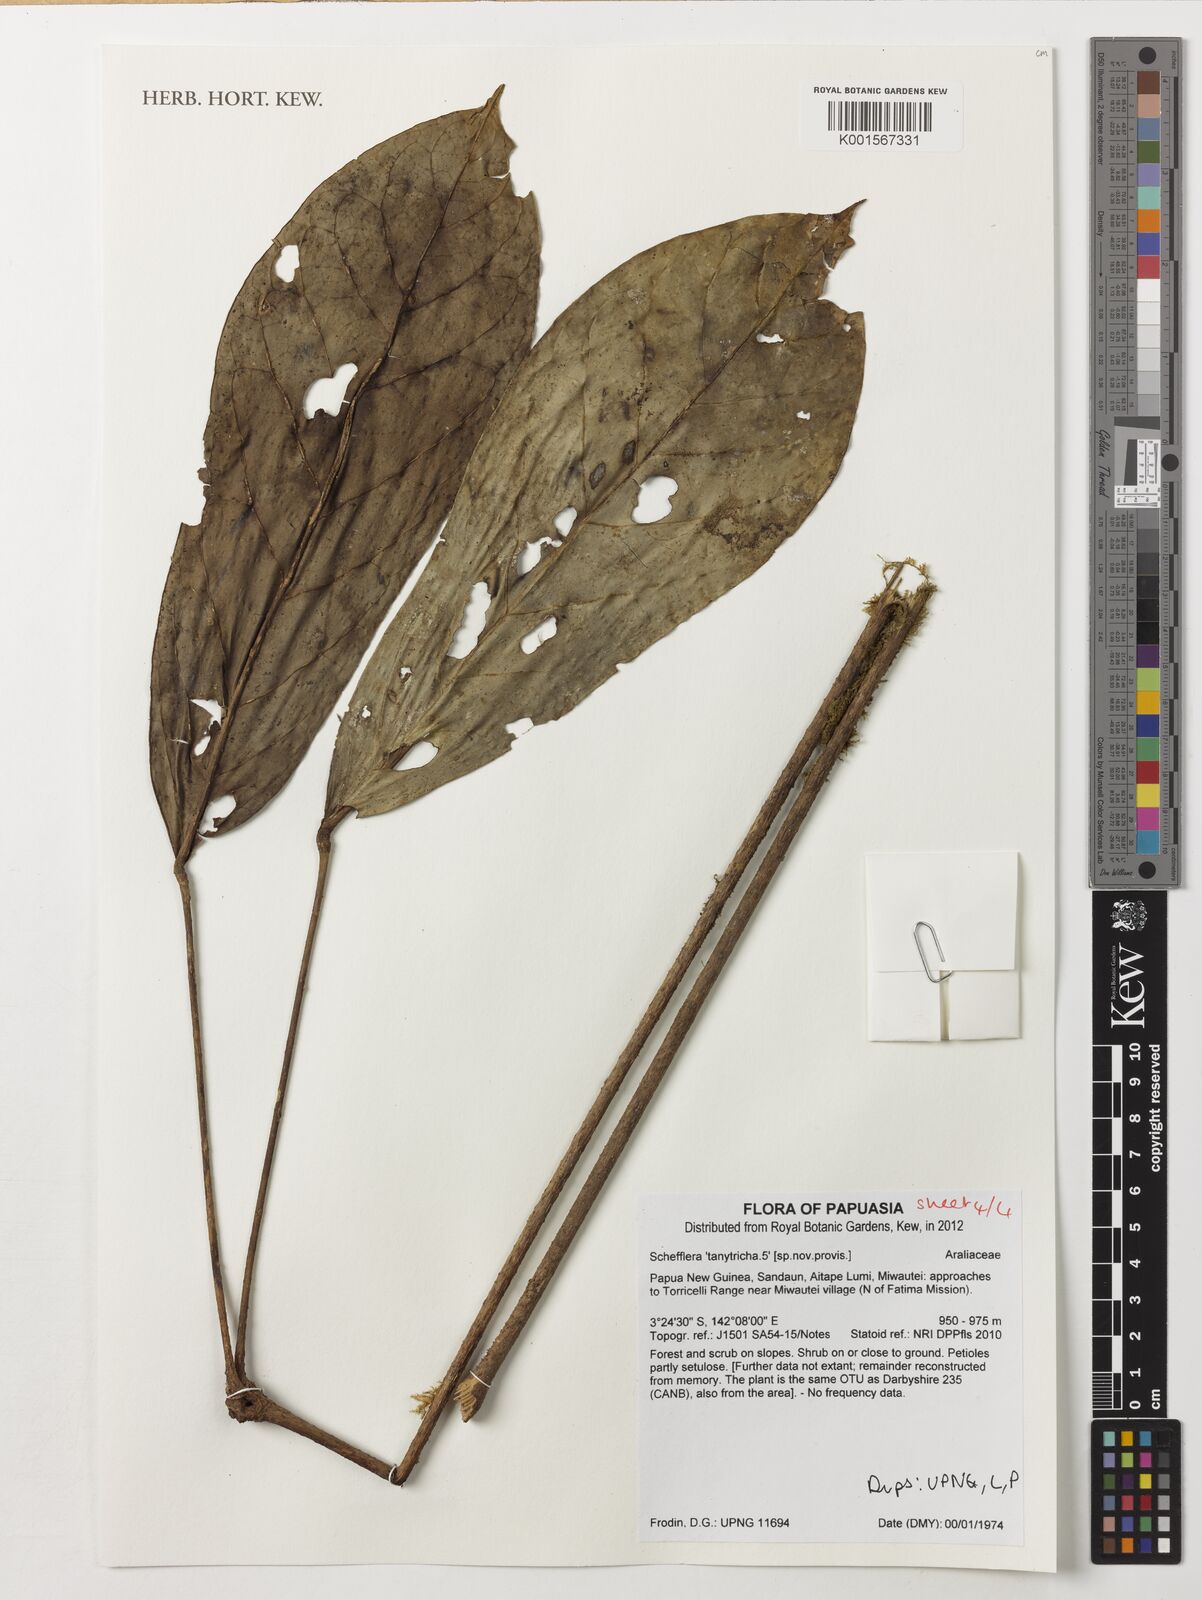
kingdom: Plantae
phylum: Tracheophyta
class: Magnoliopsida
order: Apiales
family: Araliaceae
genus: Heptapleurum
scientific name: Heptapleurum tanytrichum
